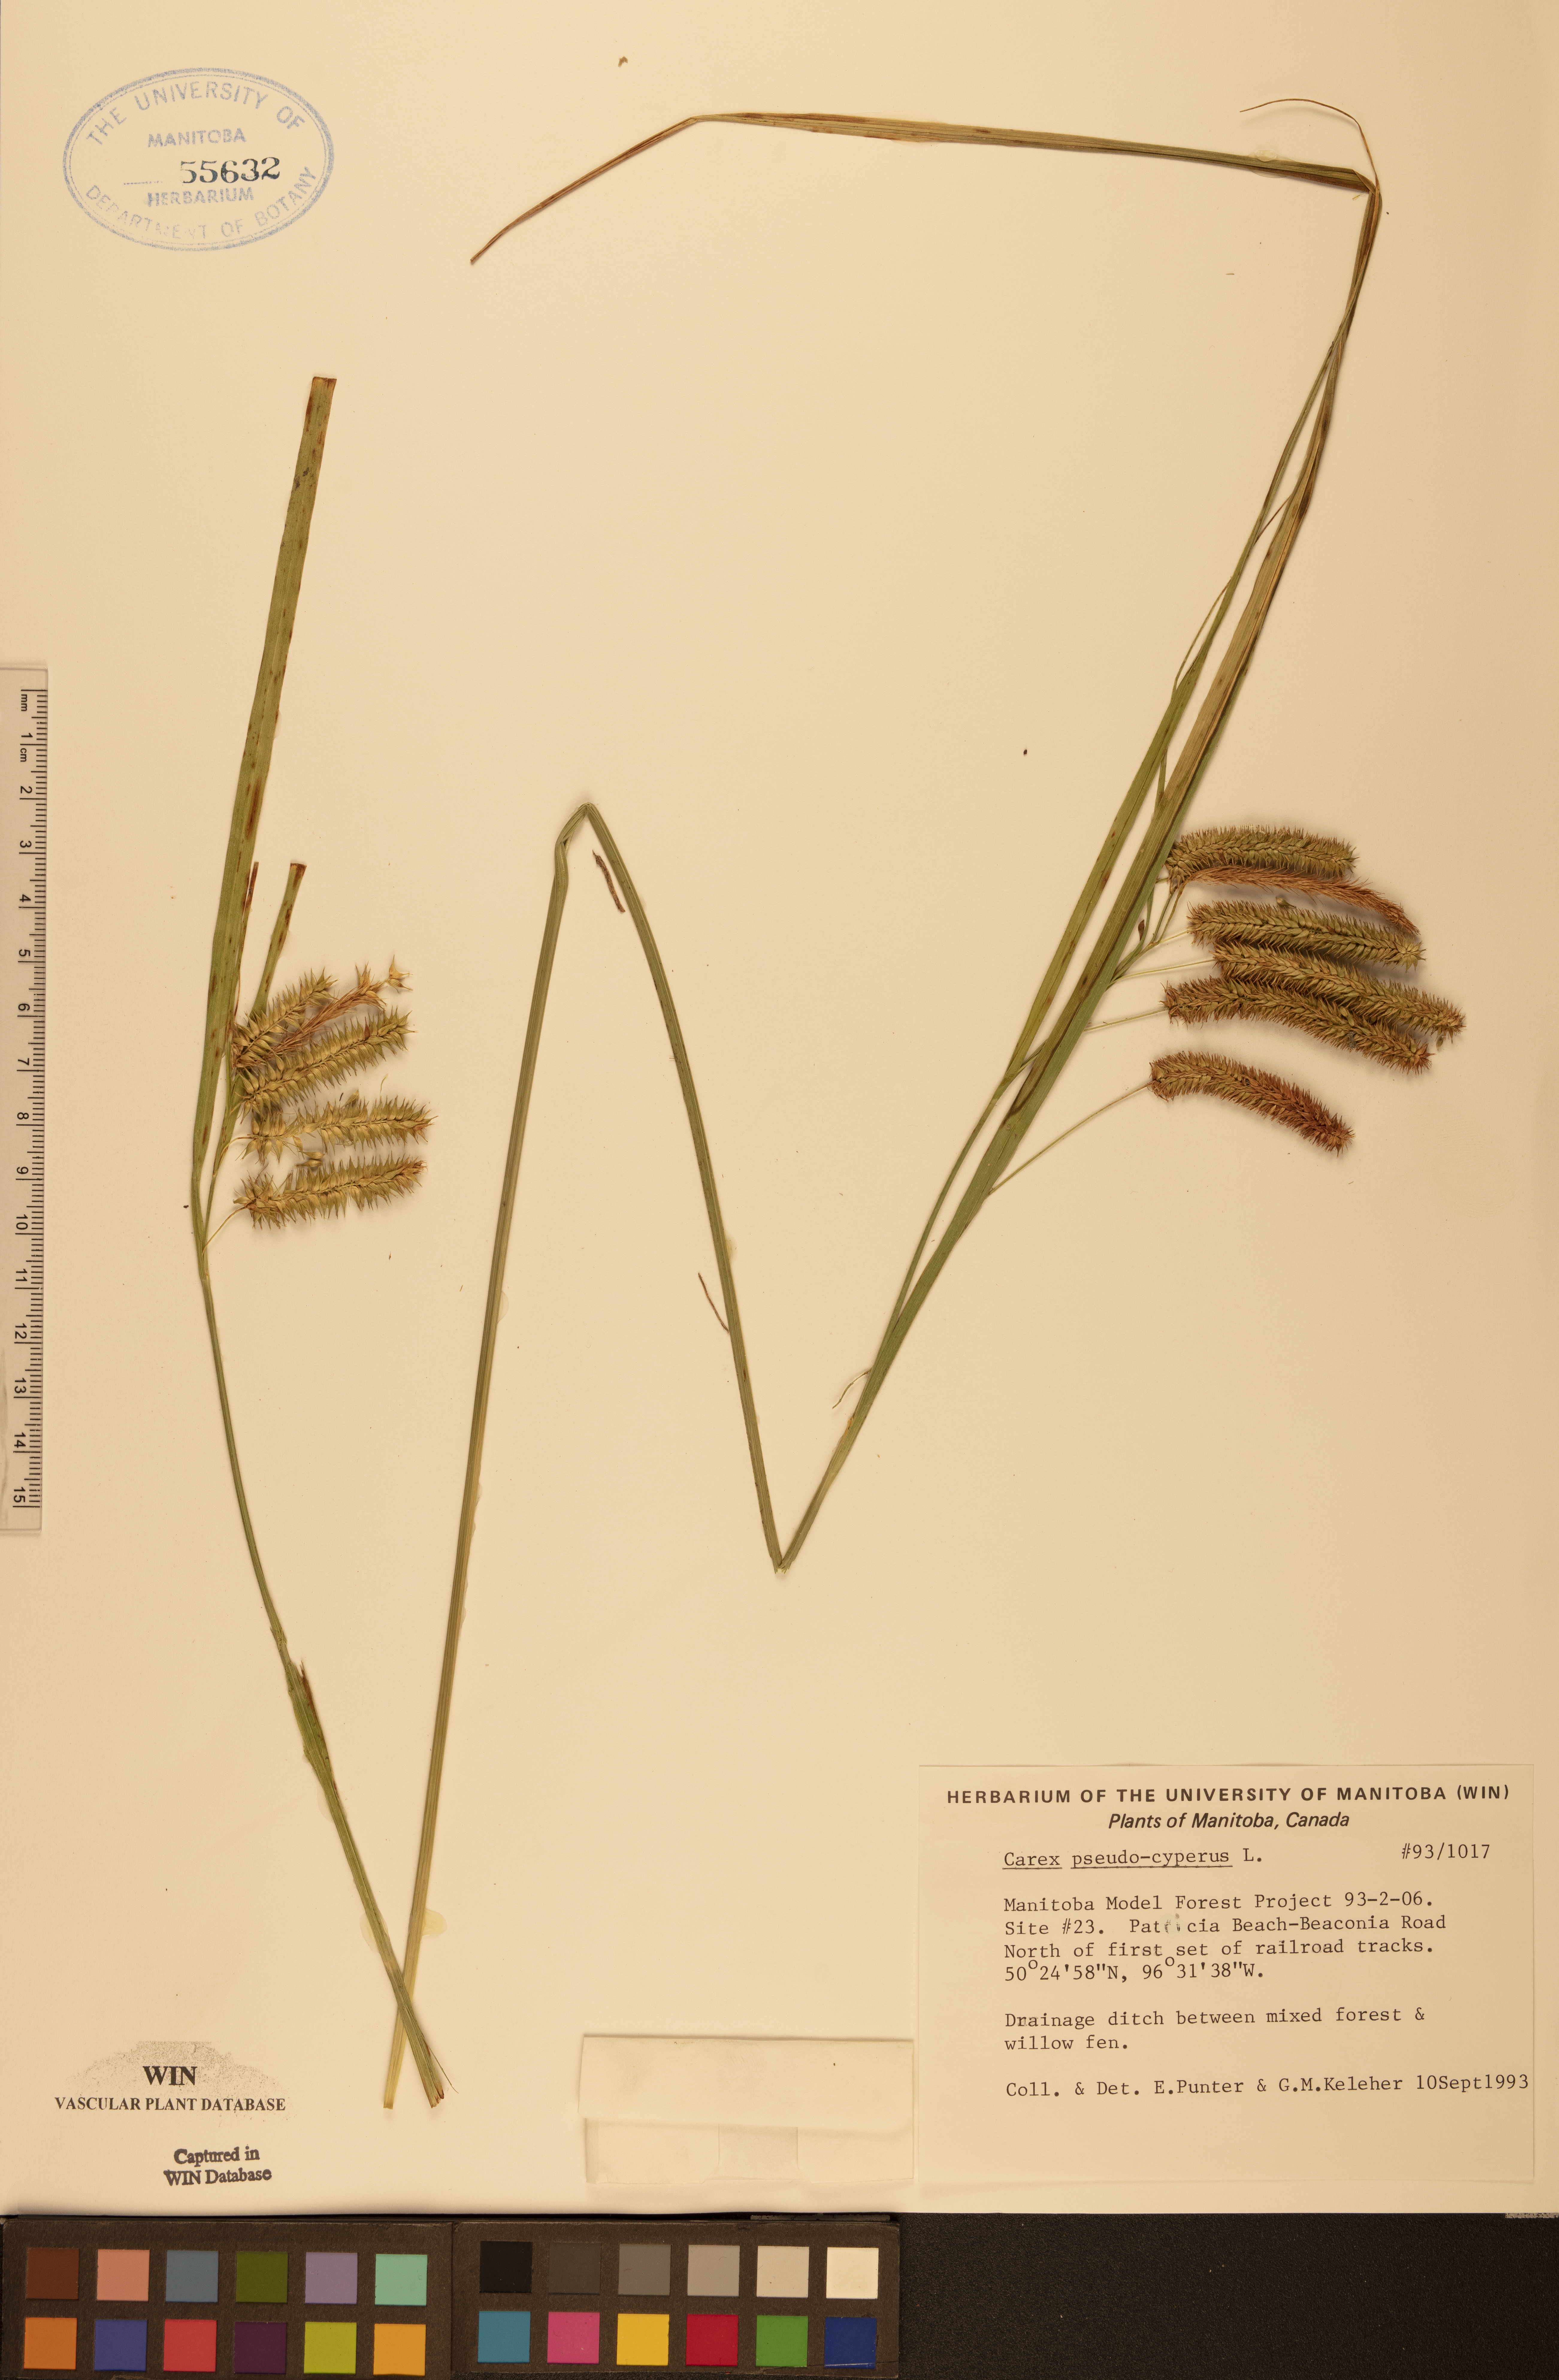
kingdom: Plantae
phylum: Tracheophyta
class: Liliopsida
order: Poales
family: Cyperaceae
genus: Carex
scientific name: Carex pseudocyperus
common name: Cyperus sedge
